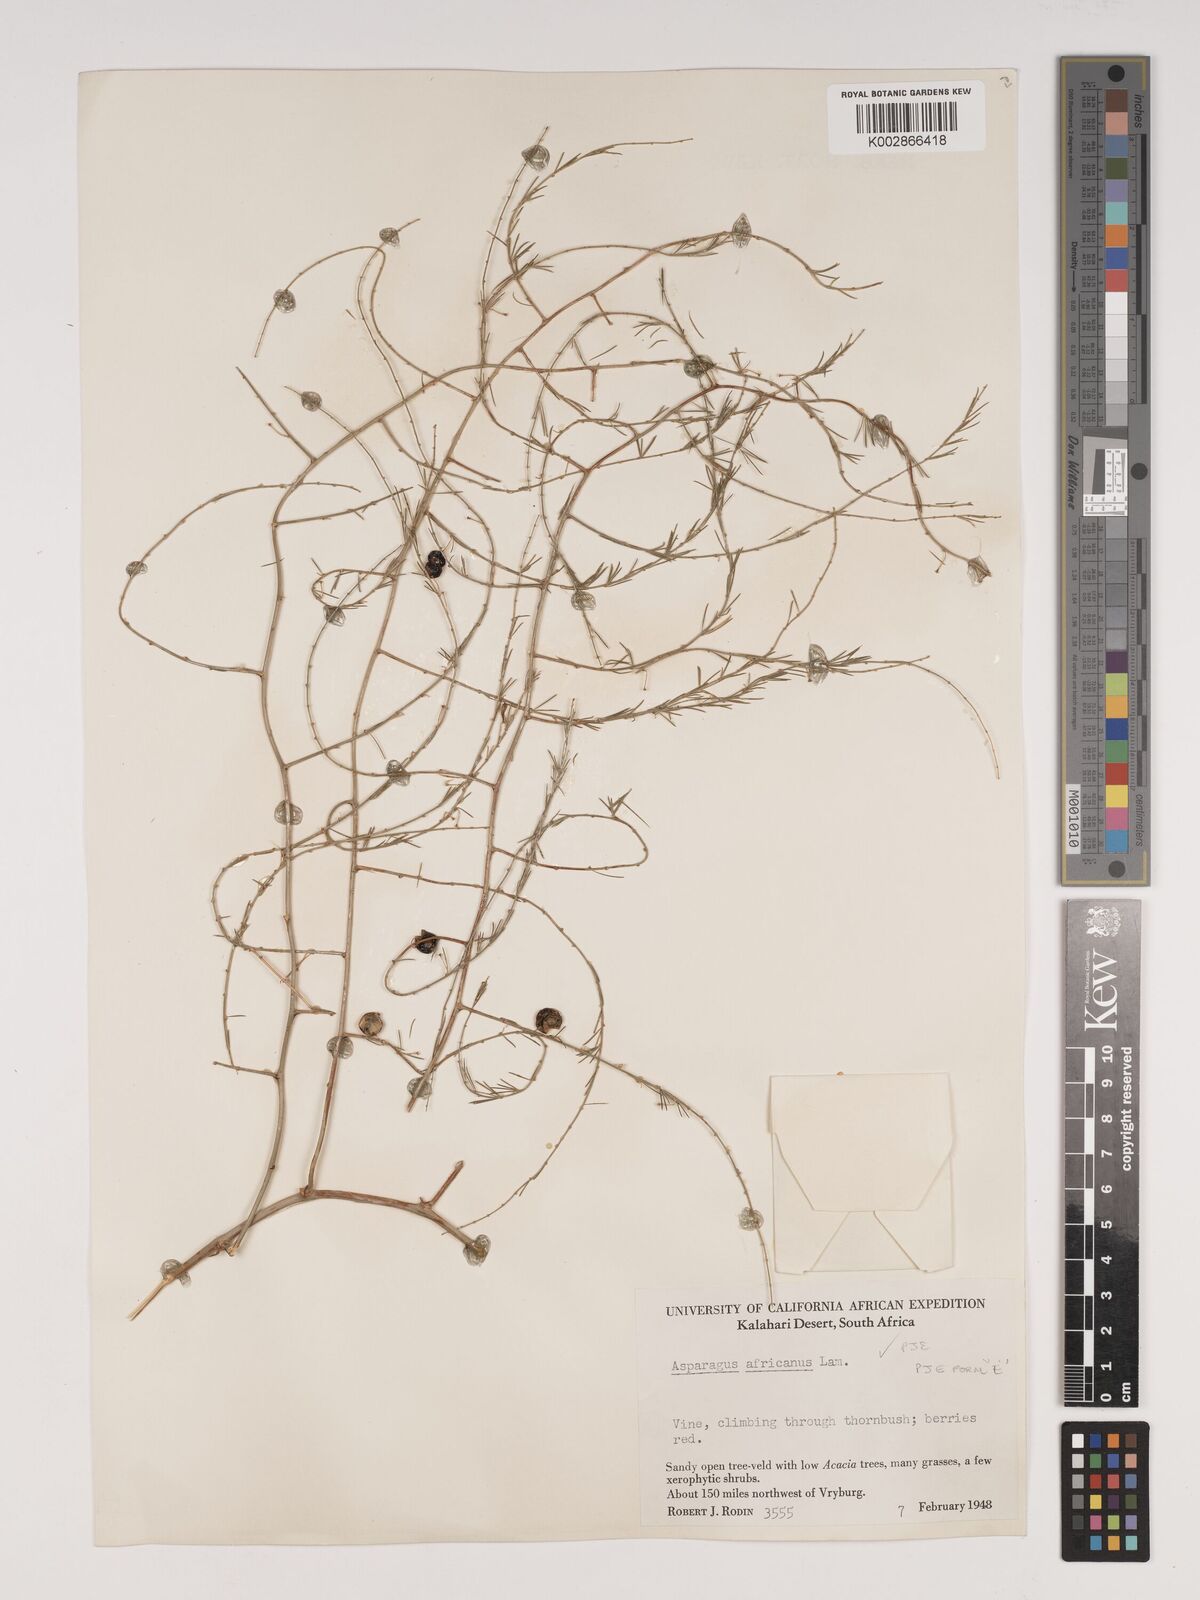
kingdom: Plantae
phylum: Tracheophyta
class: Liliopsida
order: Asparagales
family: Asparagaceae
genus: Asparagus
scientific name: Asparagus africanus
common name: Asparagus-fern
